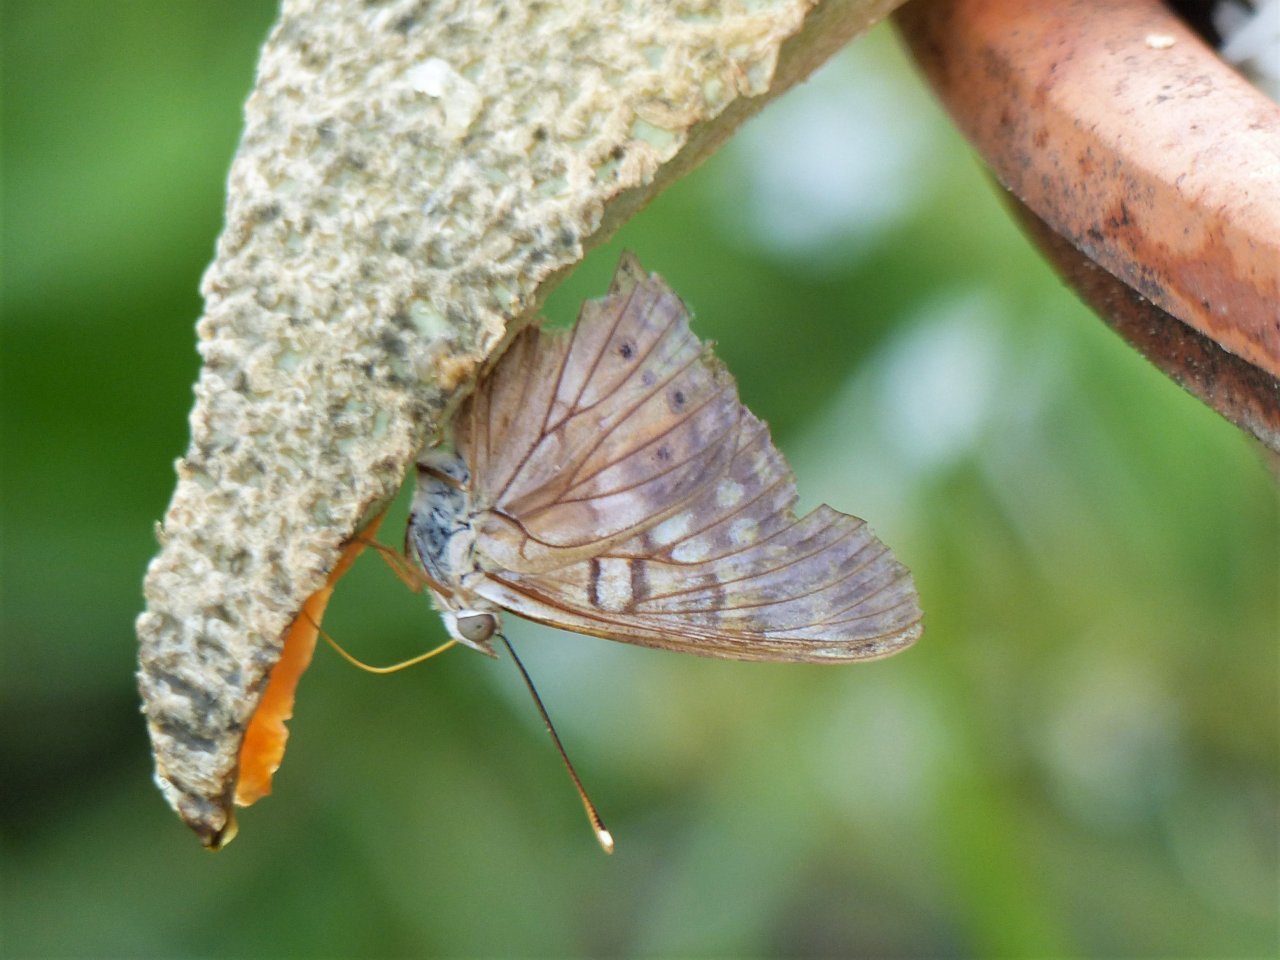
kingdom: Animalia
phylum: Arthropoda
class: Insecta
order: Lepidoptera
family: Nymphalidae
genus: Asterocampa
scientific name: Asterocampa clyton
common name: Tawny Emperor
